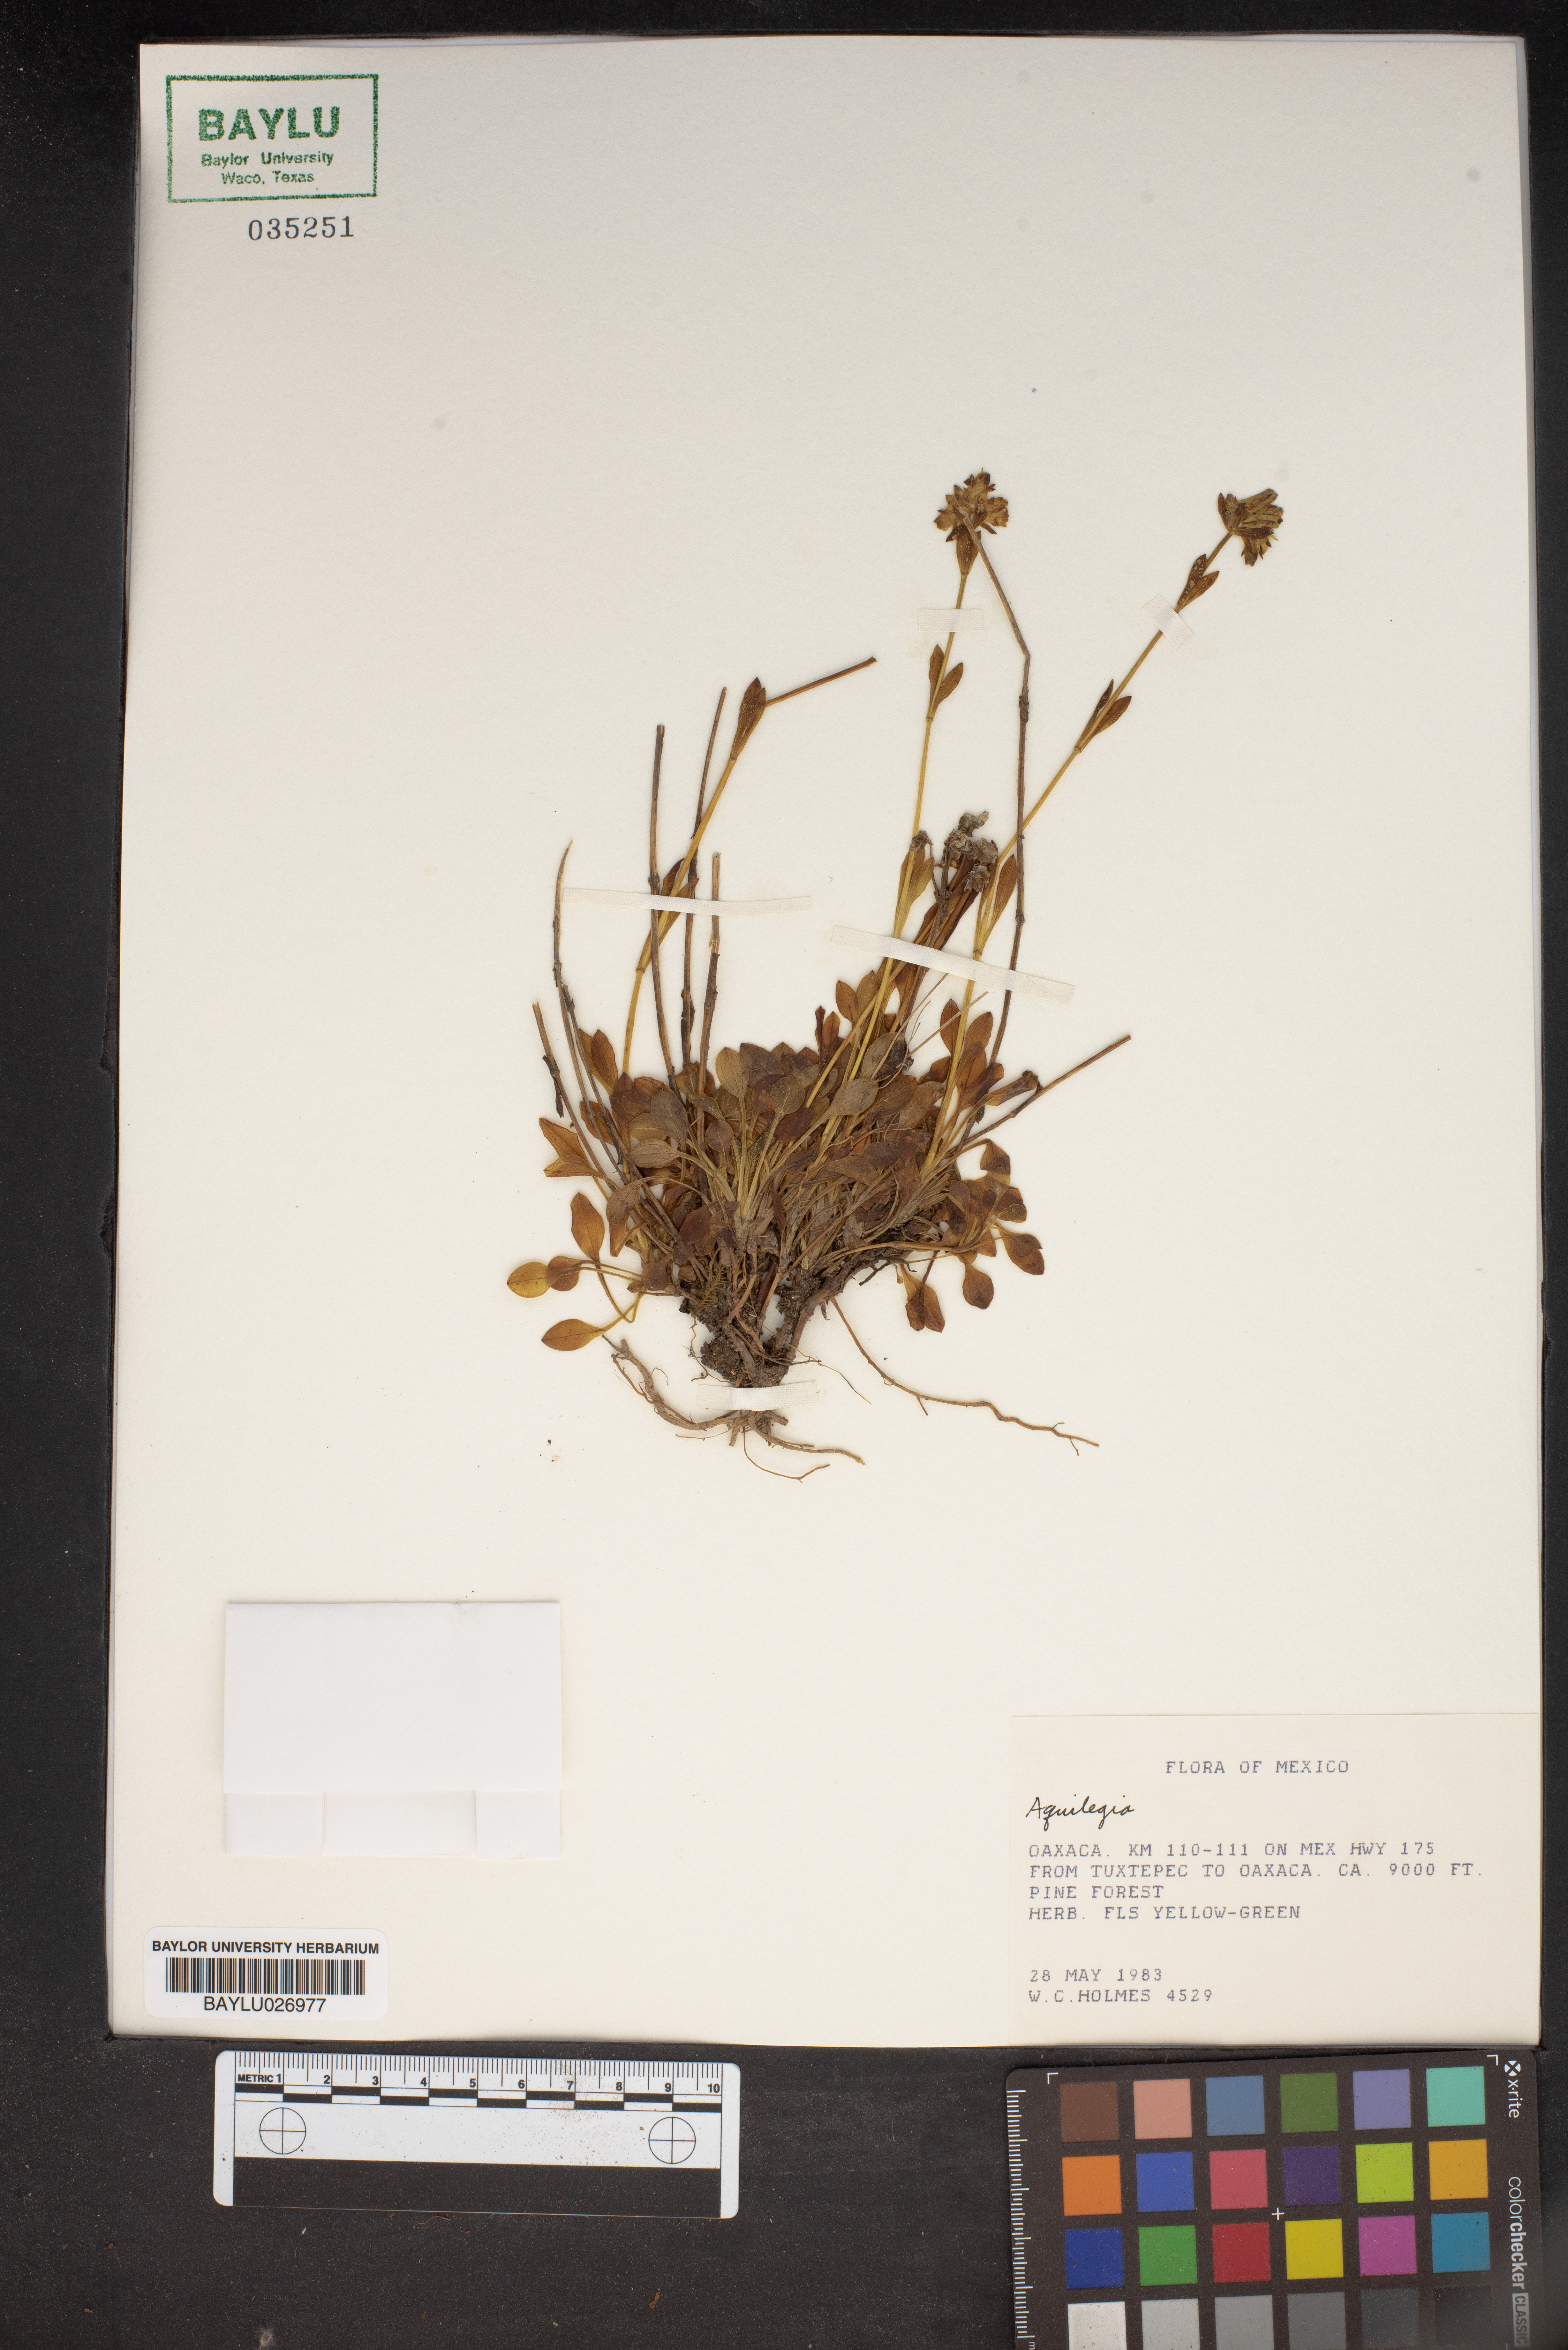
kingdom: Plantae
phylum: Tracheophyta
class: Magnoliopsida
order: Ranunculales
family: Ranunculaceae
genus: Aquilegia
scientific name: Aquilegia
